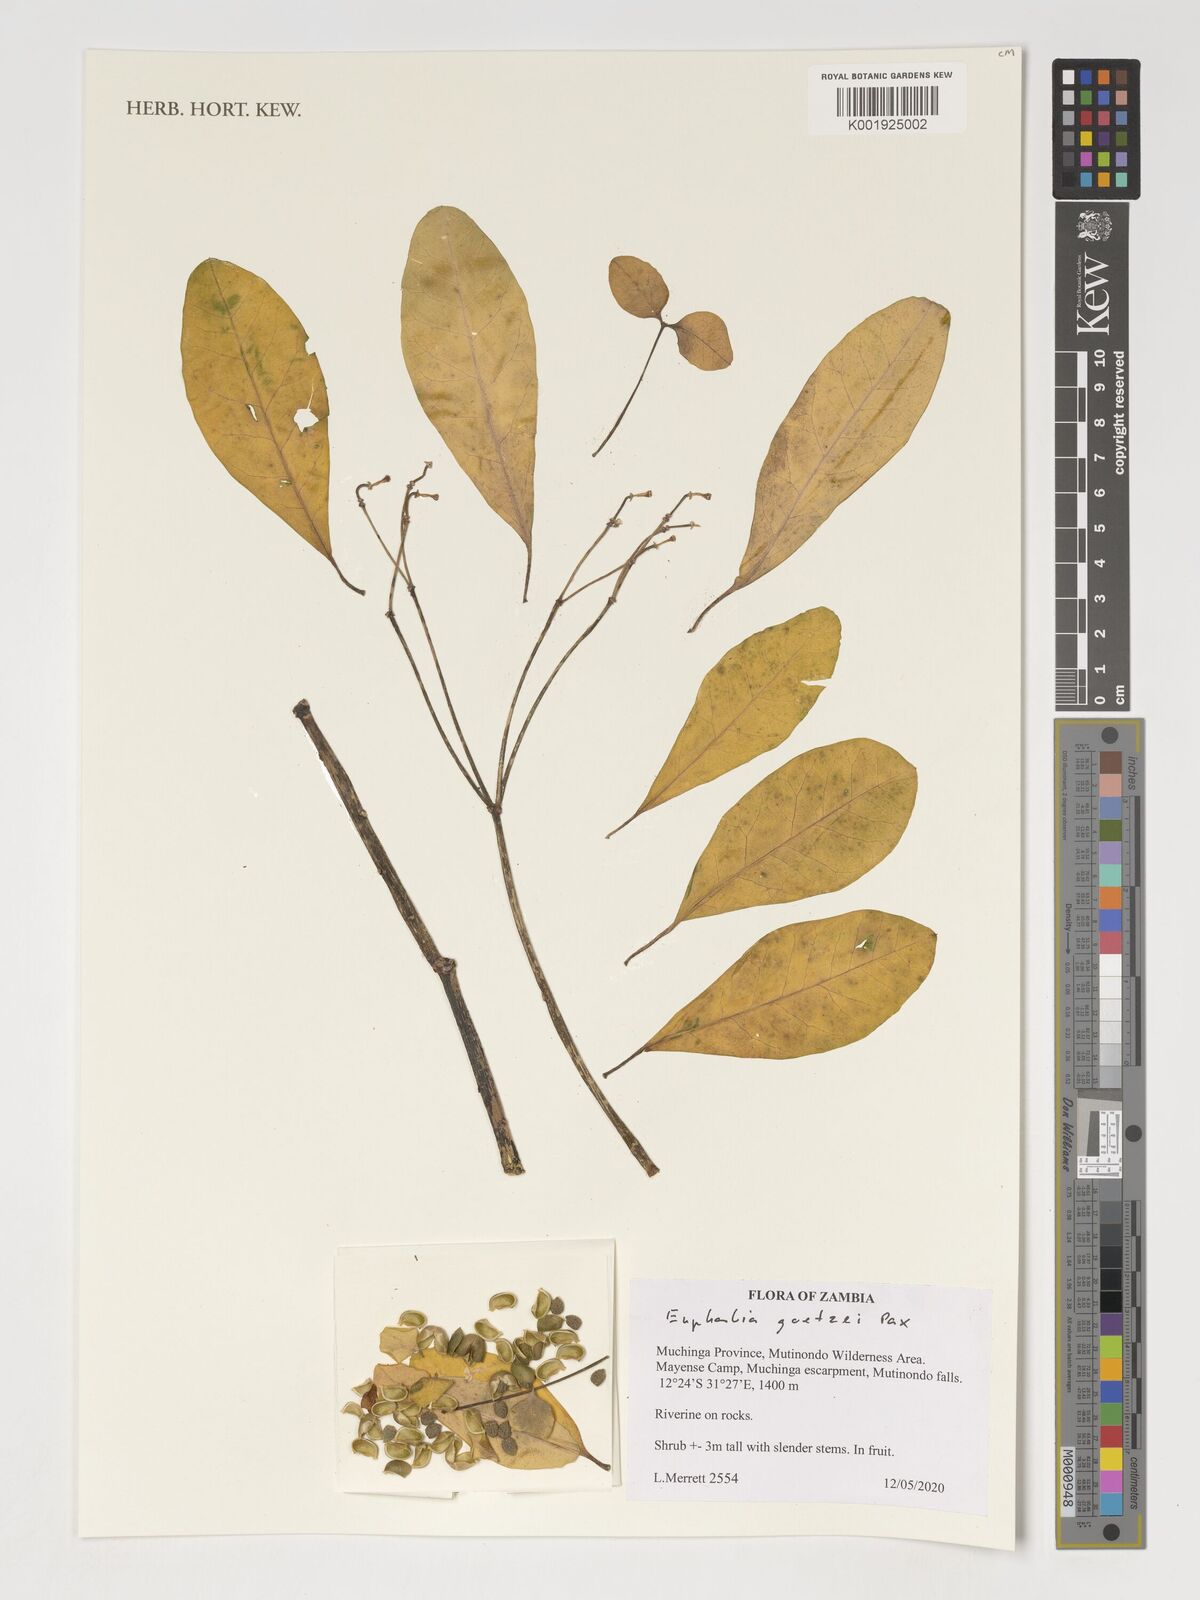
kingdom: Plantae
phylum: Tracheophyta
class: Magnoliopsida
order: Malpighiales
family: Euphorbiaceae
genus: Euphorbia
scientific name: Euphorbia transvaalensis
